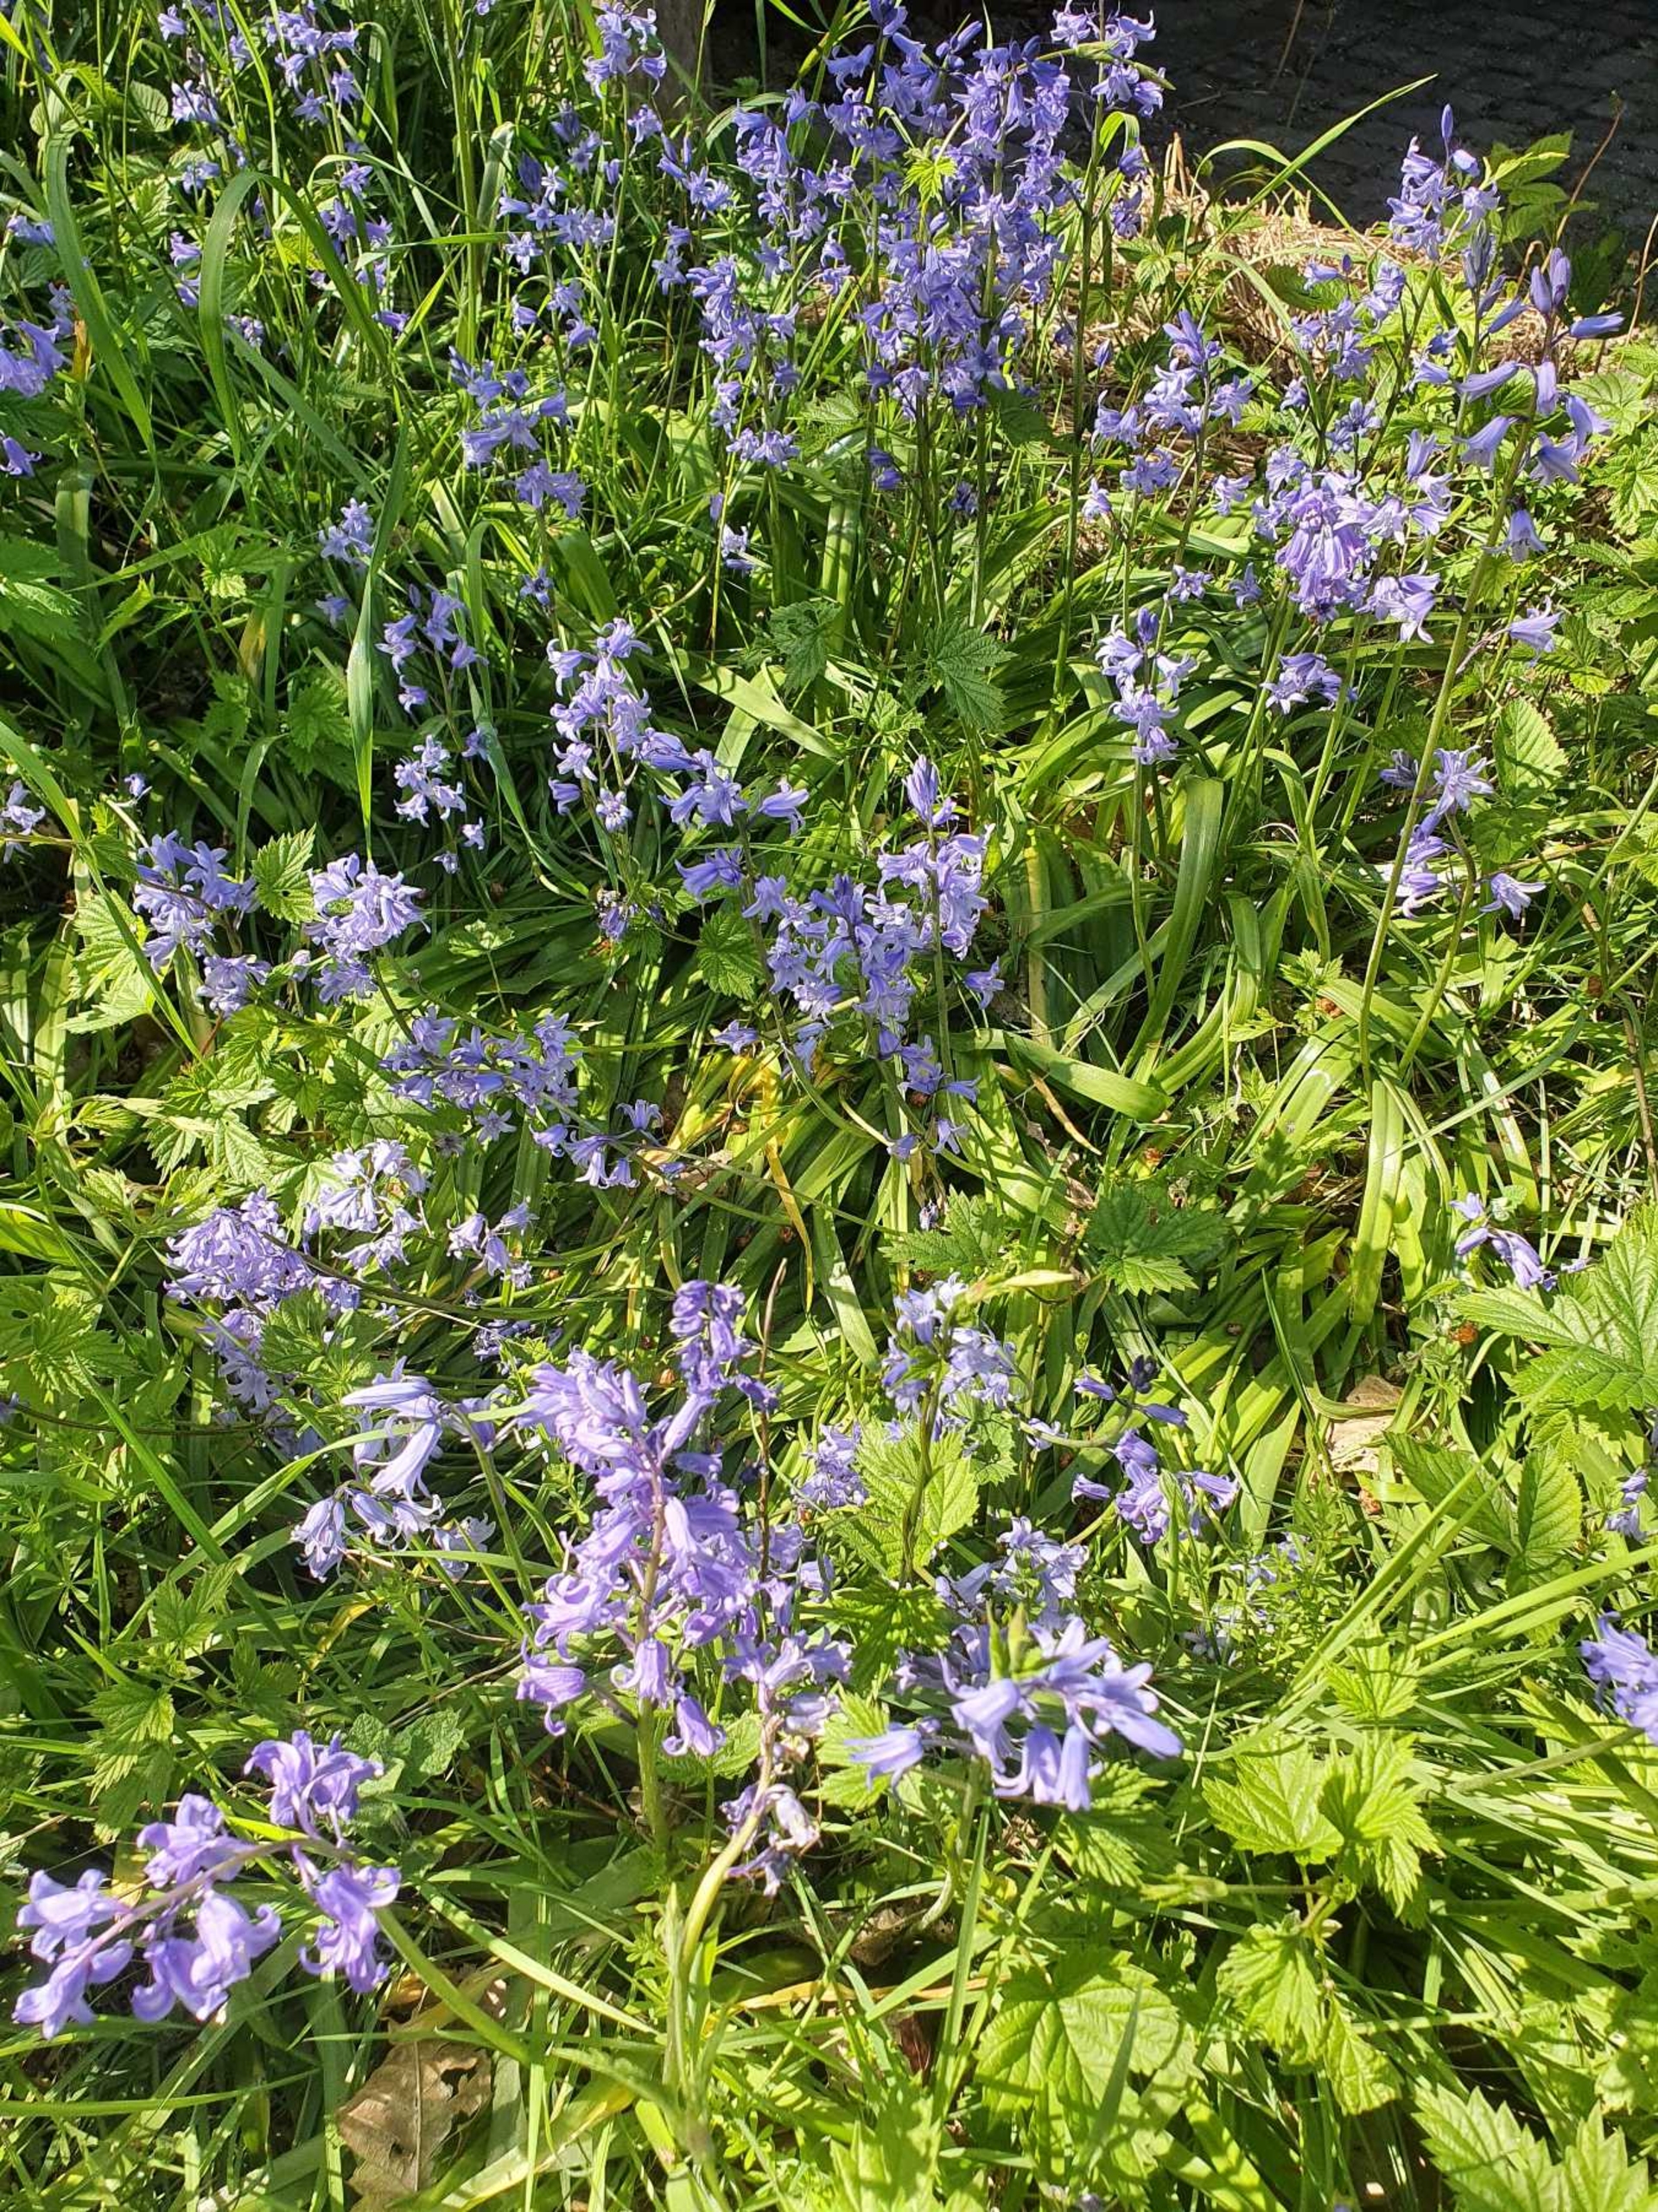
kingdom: Plantae
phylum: Tracheophyta
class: Liliopsida
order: Asparagales
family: Asparagaceae
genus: Hyacinthoides
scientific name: Hyacinthoides massartiana
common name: Hybrid-klokkeskilla
